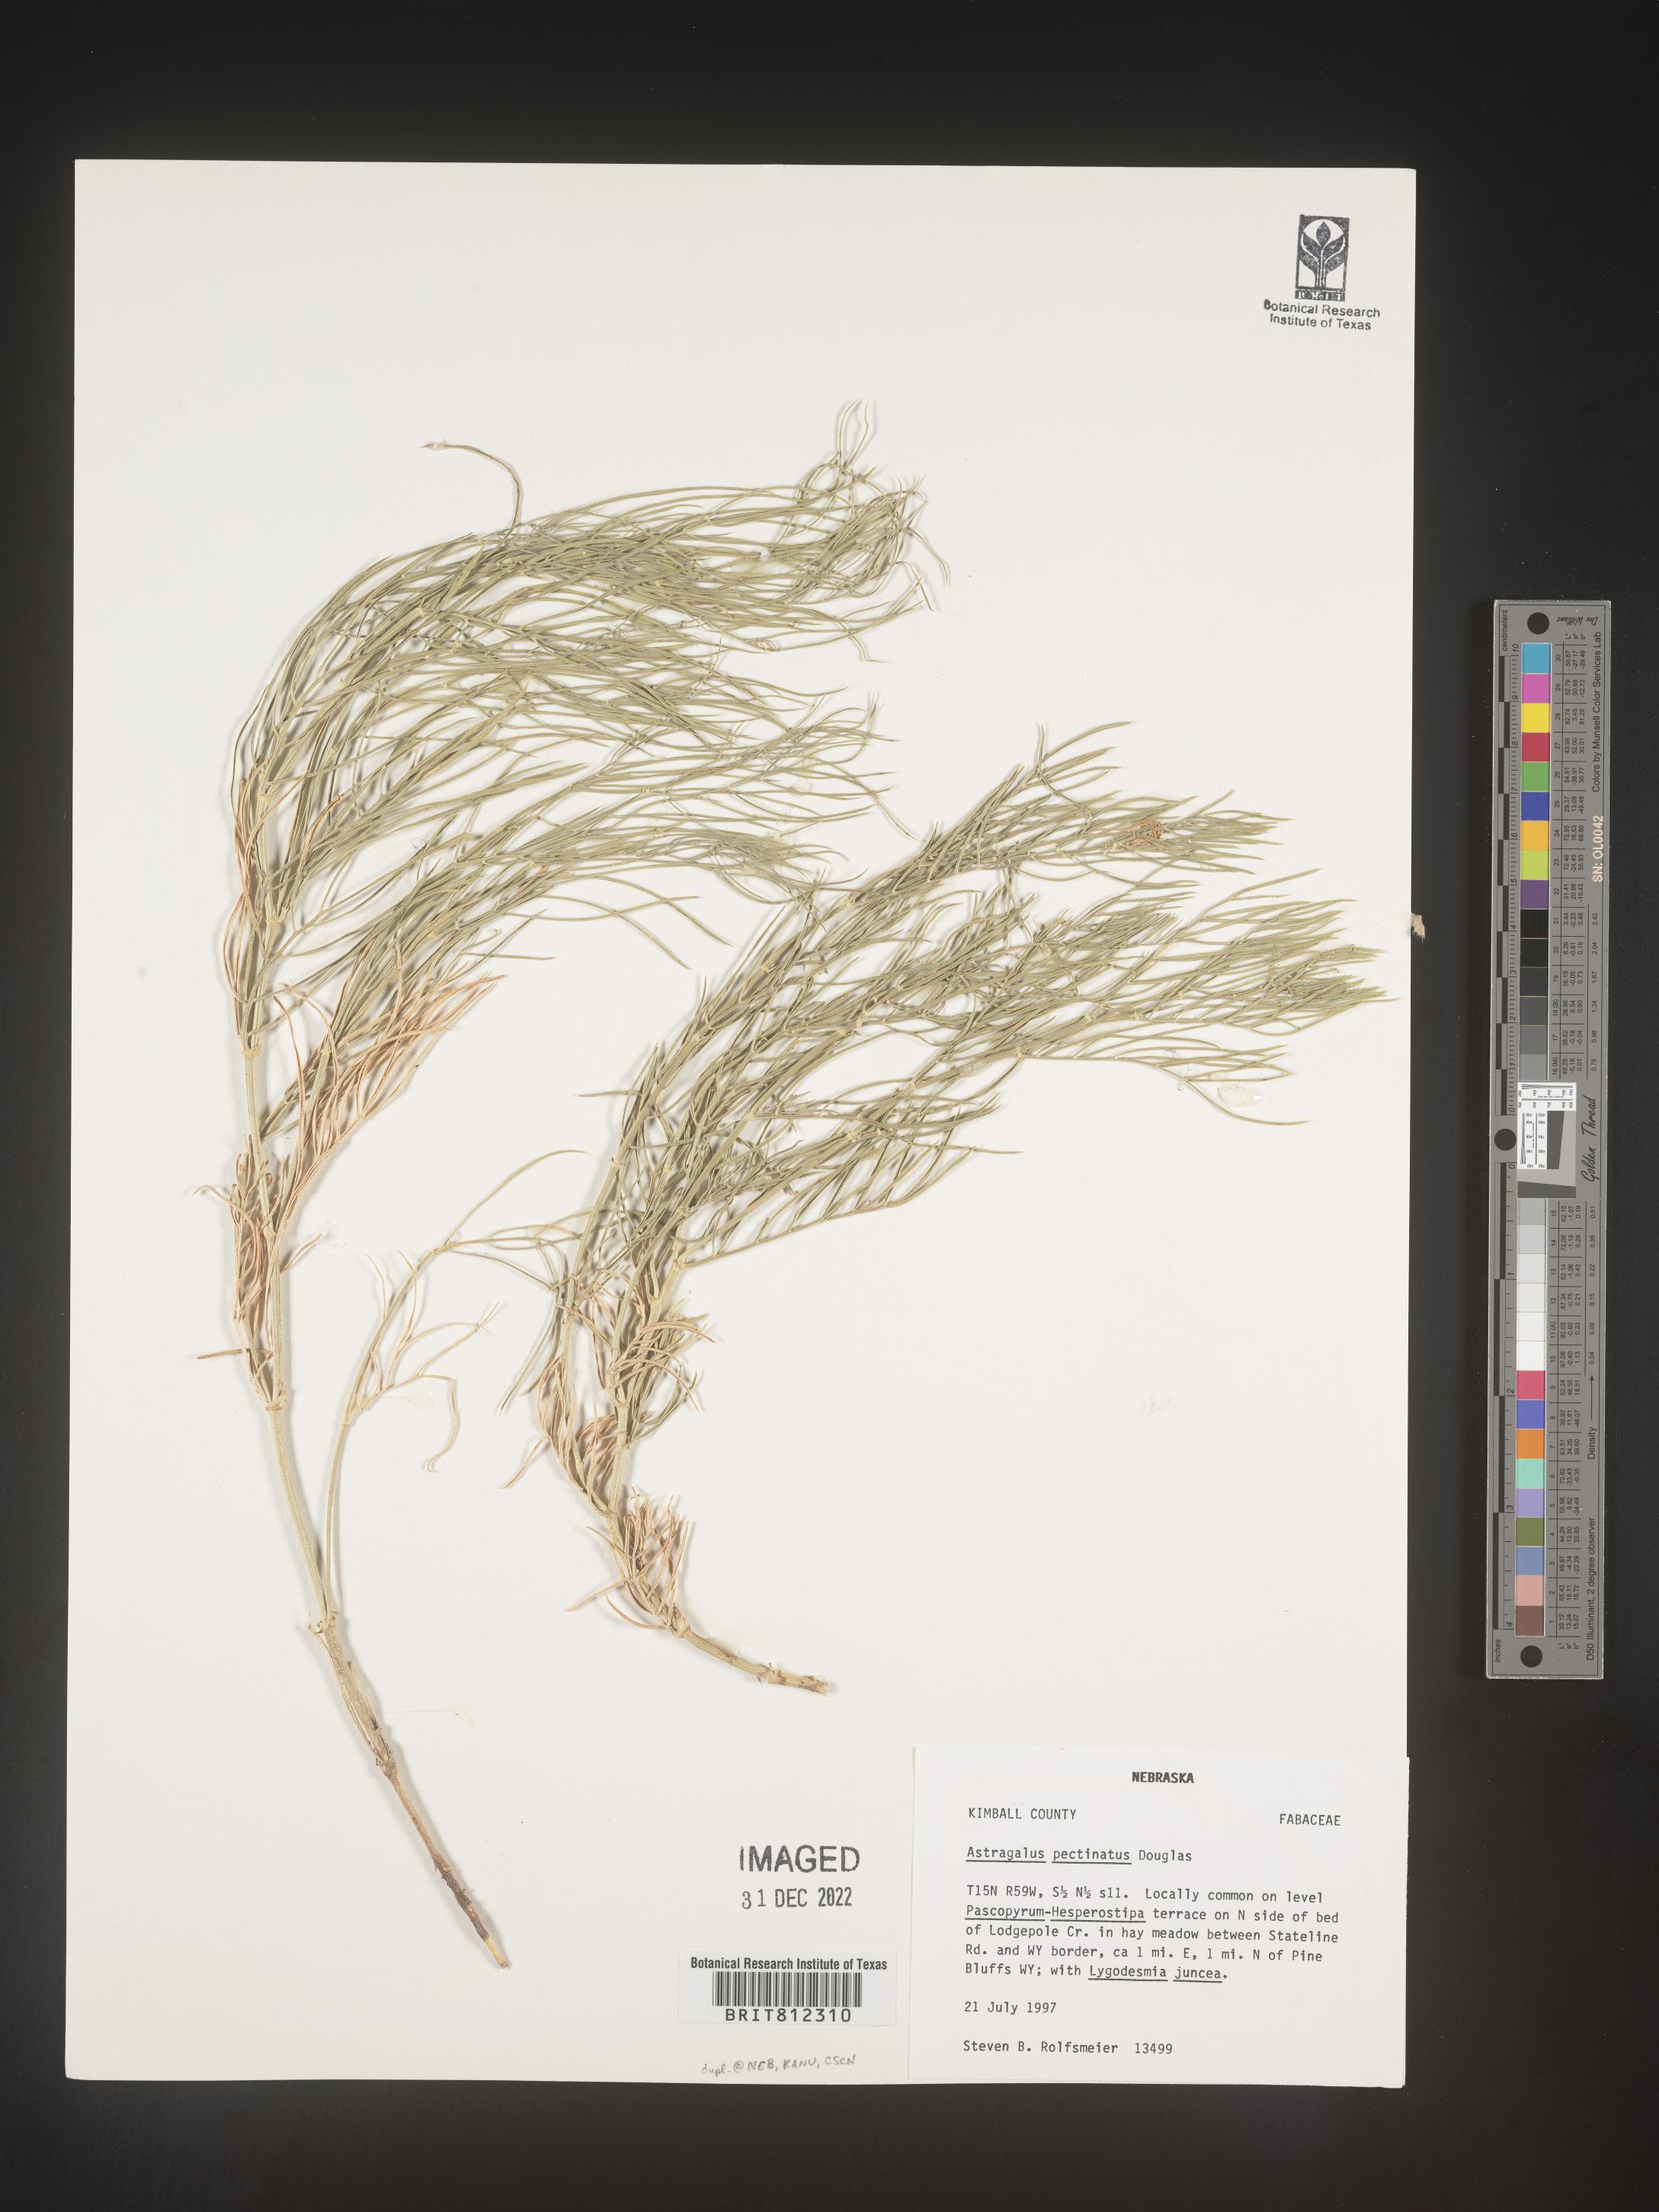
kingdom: Plantae
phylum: Tracheophyta
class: Magnoliopsida
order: Fabales
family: Fabaceae
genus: Astragalus
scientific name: Astragalus
